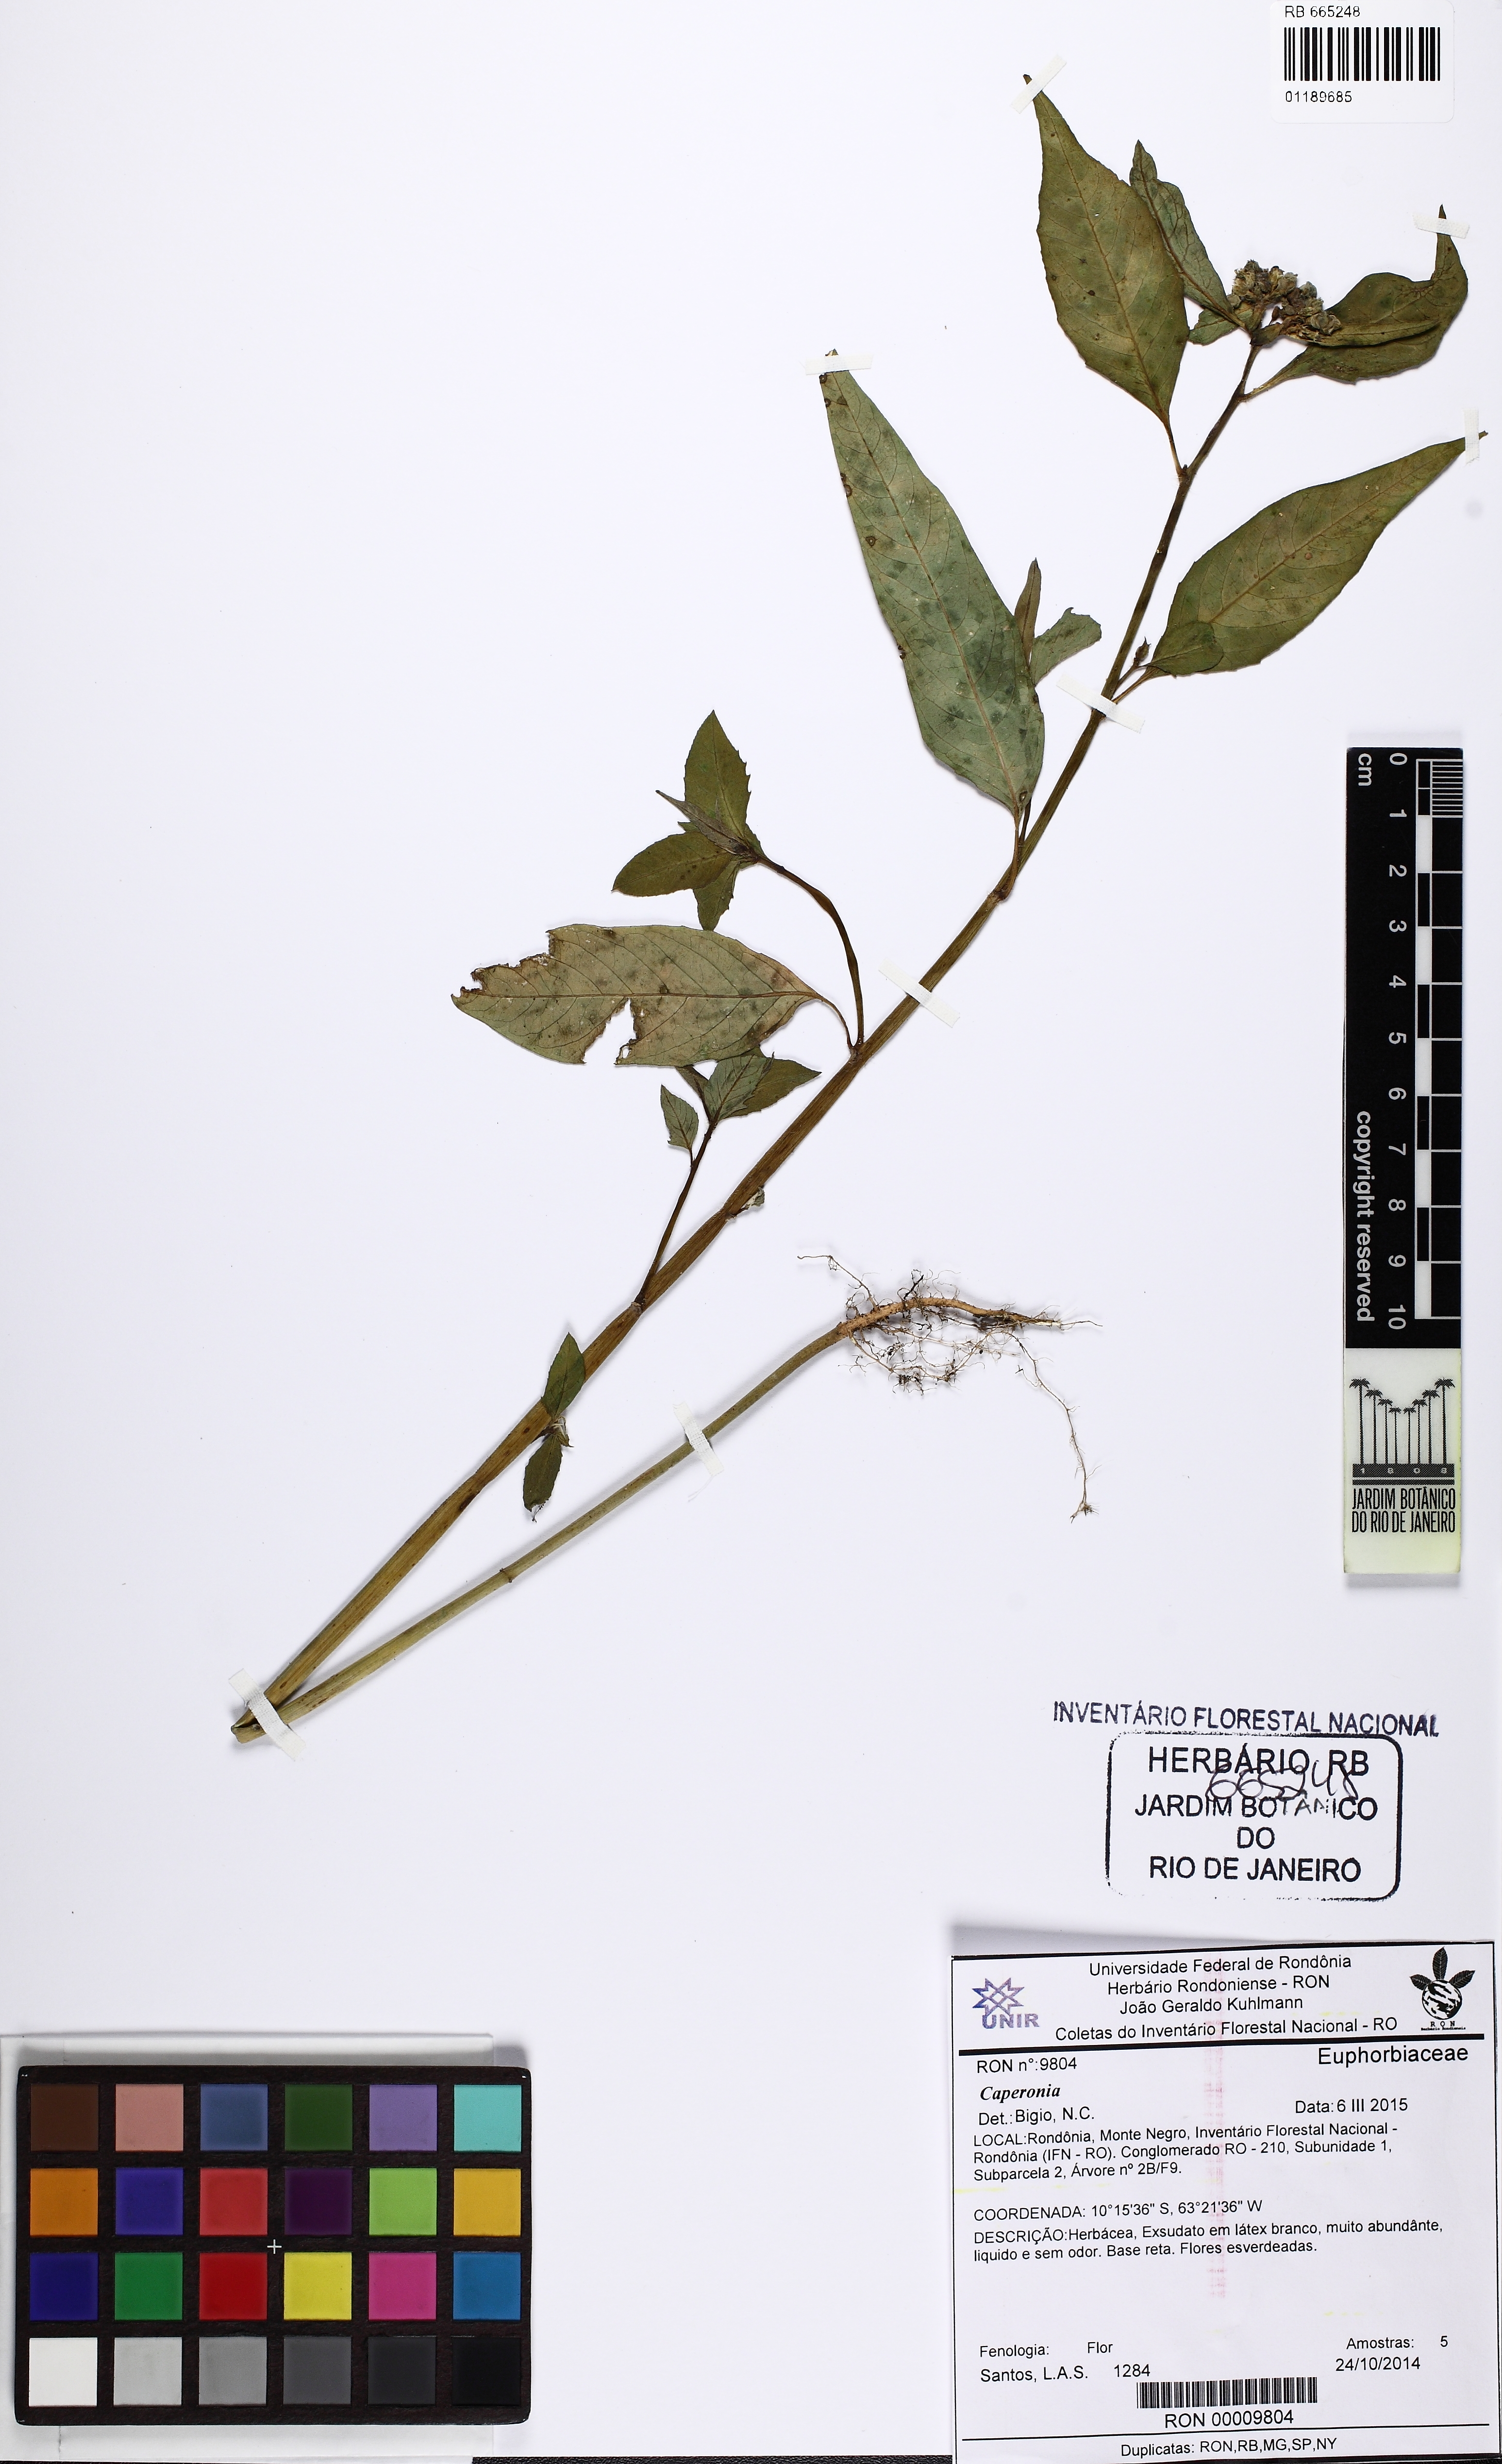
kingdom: Plantae
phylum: Tracheophyta
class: Magnoliopsida
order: Malpighiales
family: Euphorbiaceae
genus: Euphorbia
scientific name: Euphorbia heterophylla
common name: Mexican fireplant
